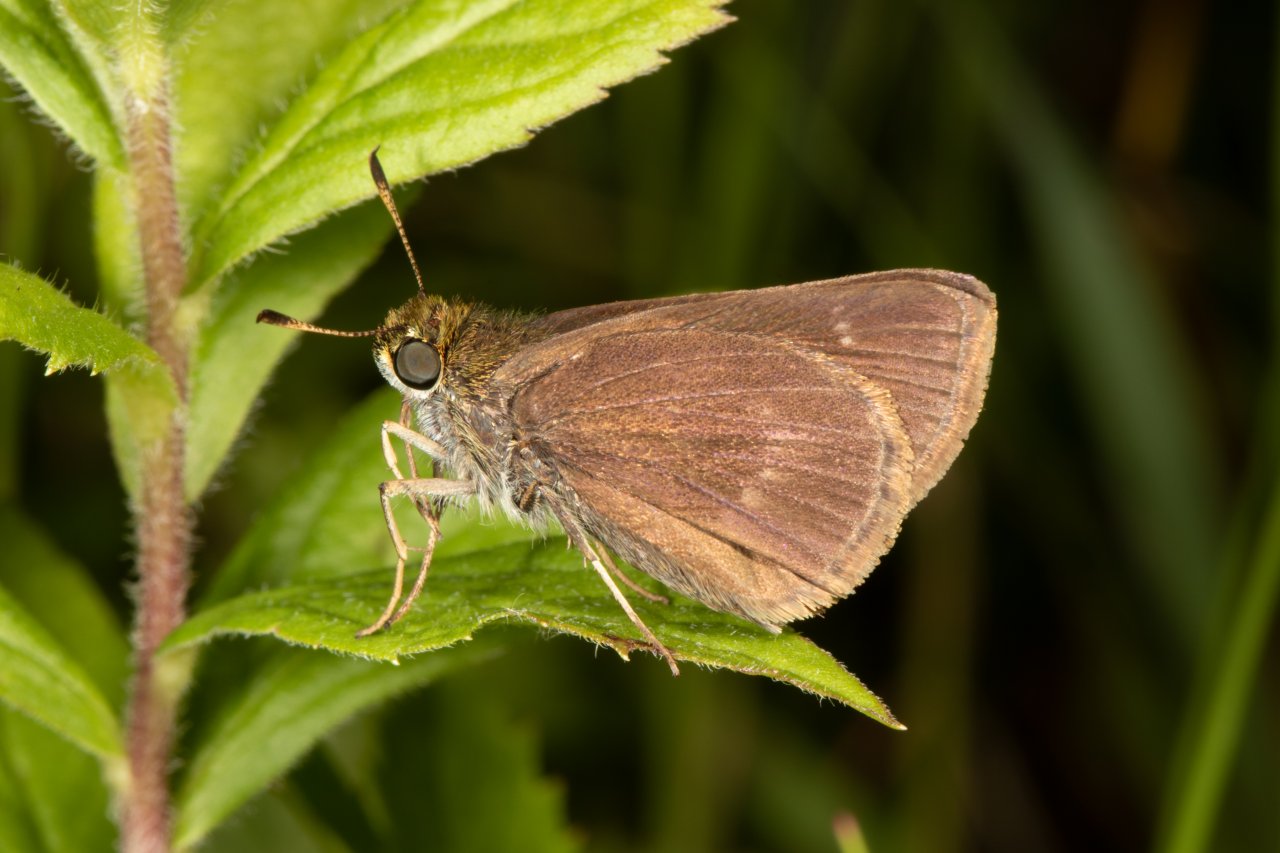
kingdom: Animalia
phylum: Arthropoda
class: Insecta
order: Lepidoptera
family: Hesperiidae
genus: Euphyes
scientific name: Euphyes vestris
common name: Dun Skipper
